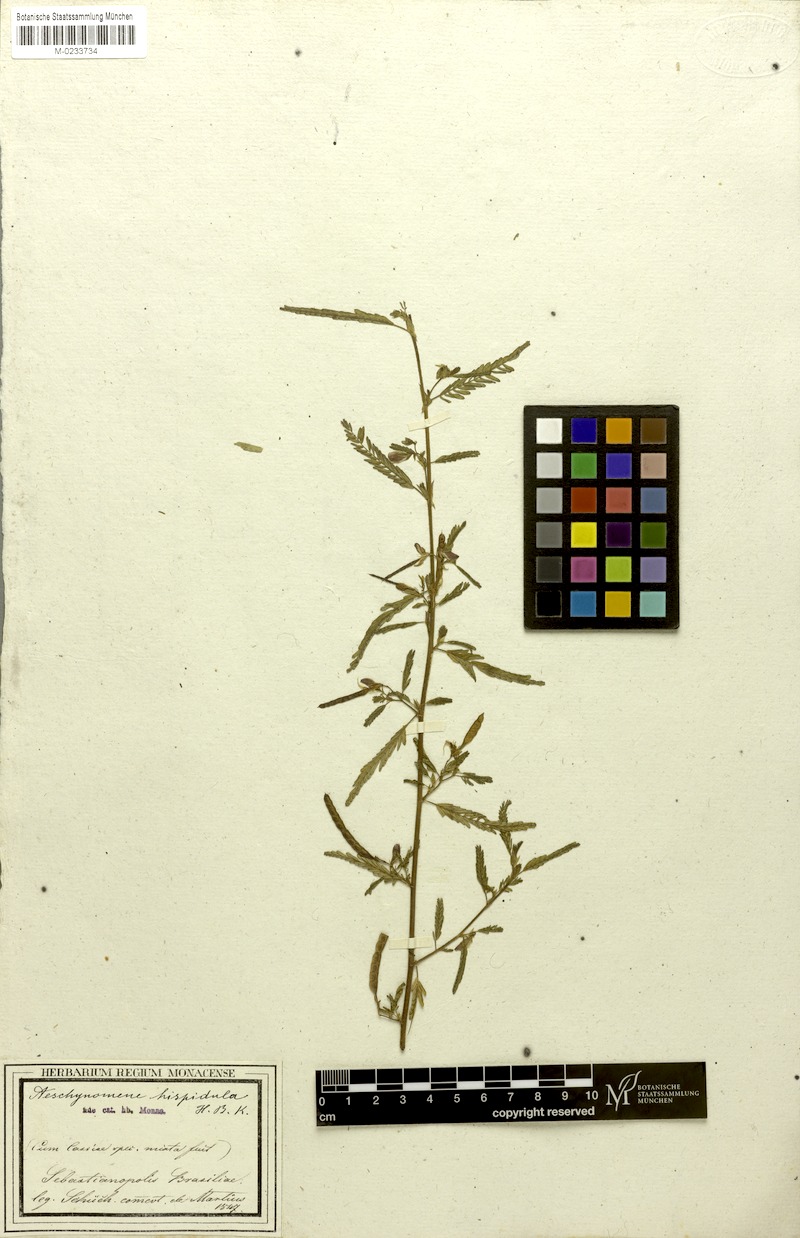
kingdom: Plantae
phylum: Tracheophyta
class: Magnoliopsida
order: Fabales
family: Fabaceae
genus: Aeschynomene
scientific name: Aeschynomene rudis
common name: Rough joint-vetch
